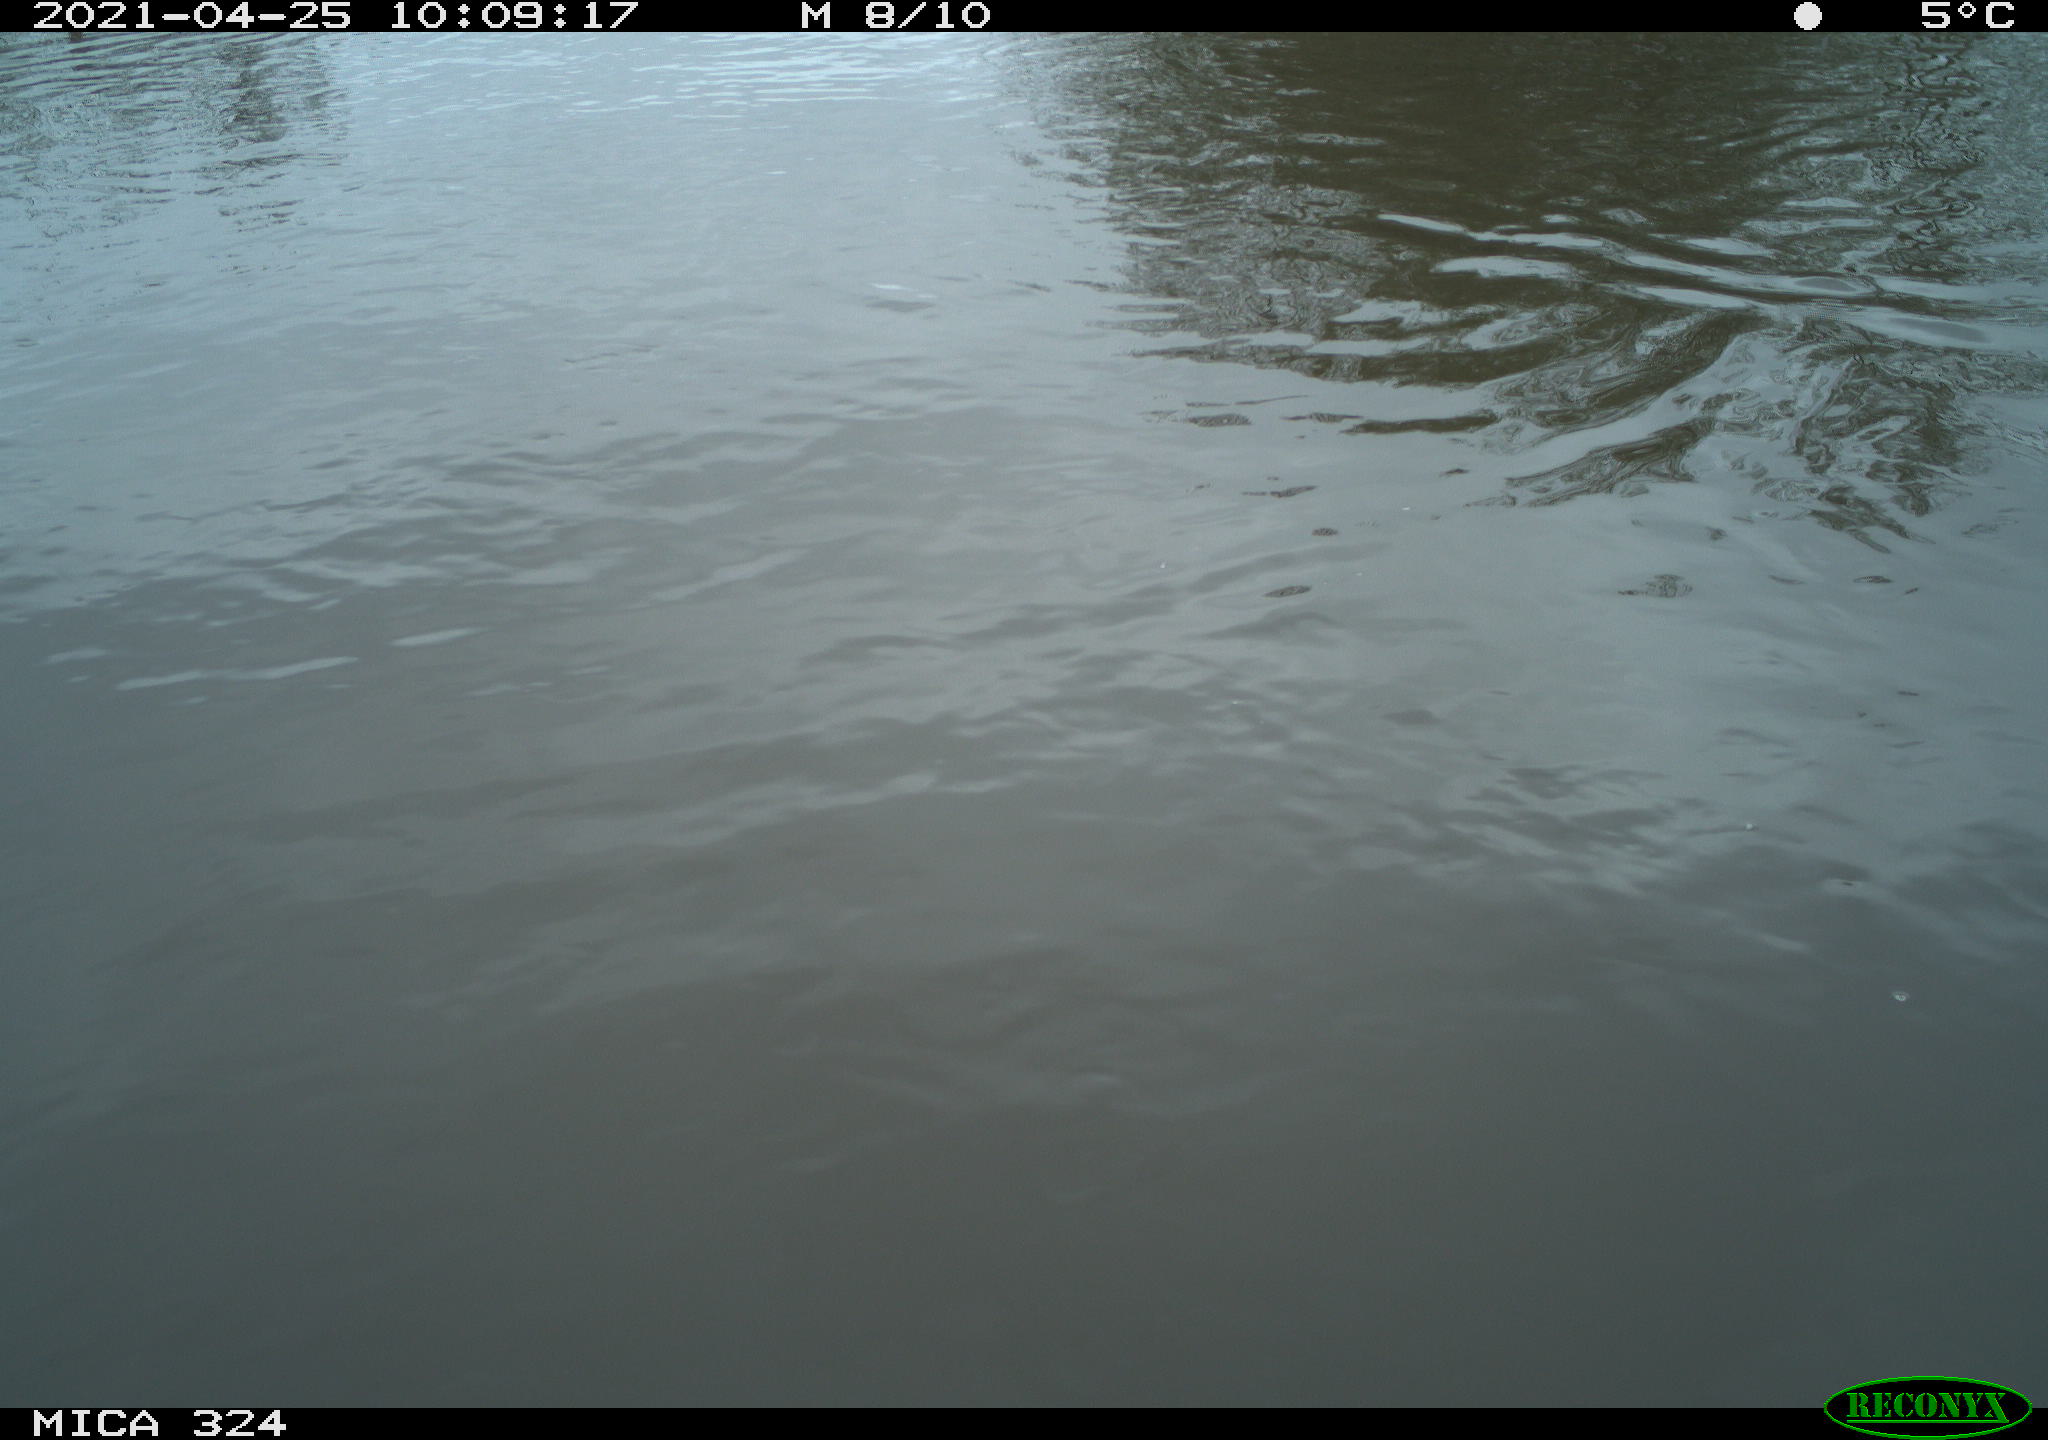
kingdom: Animalia
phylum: Chordata
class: Aves
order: Gruiformes
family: Rallidae
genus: Gallinula
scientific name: Gallinula chloropus
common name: Common moorhen
